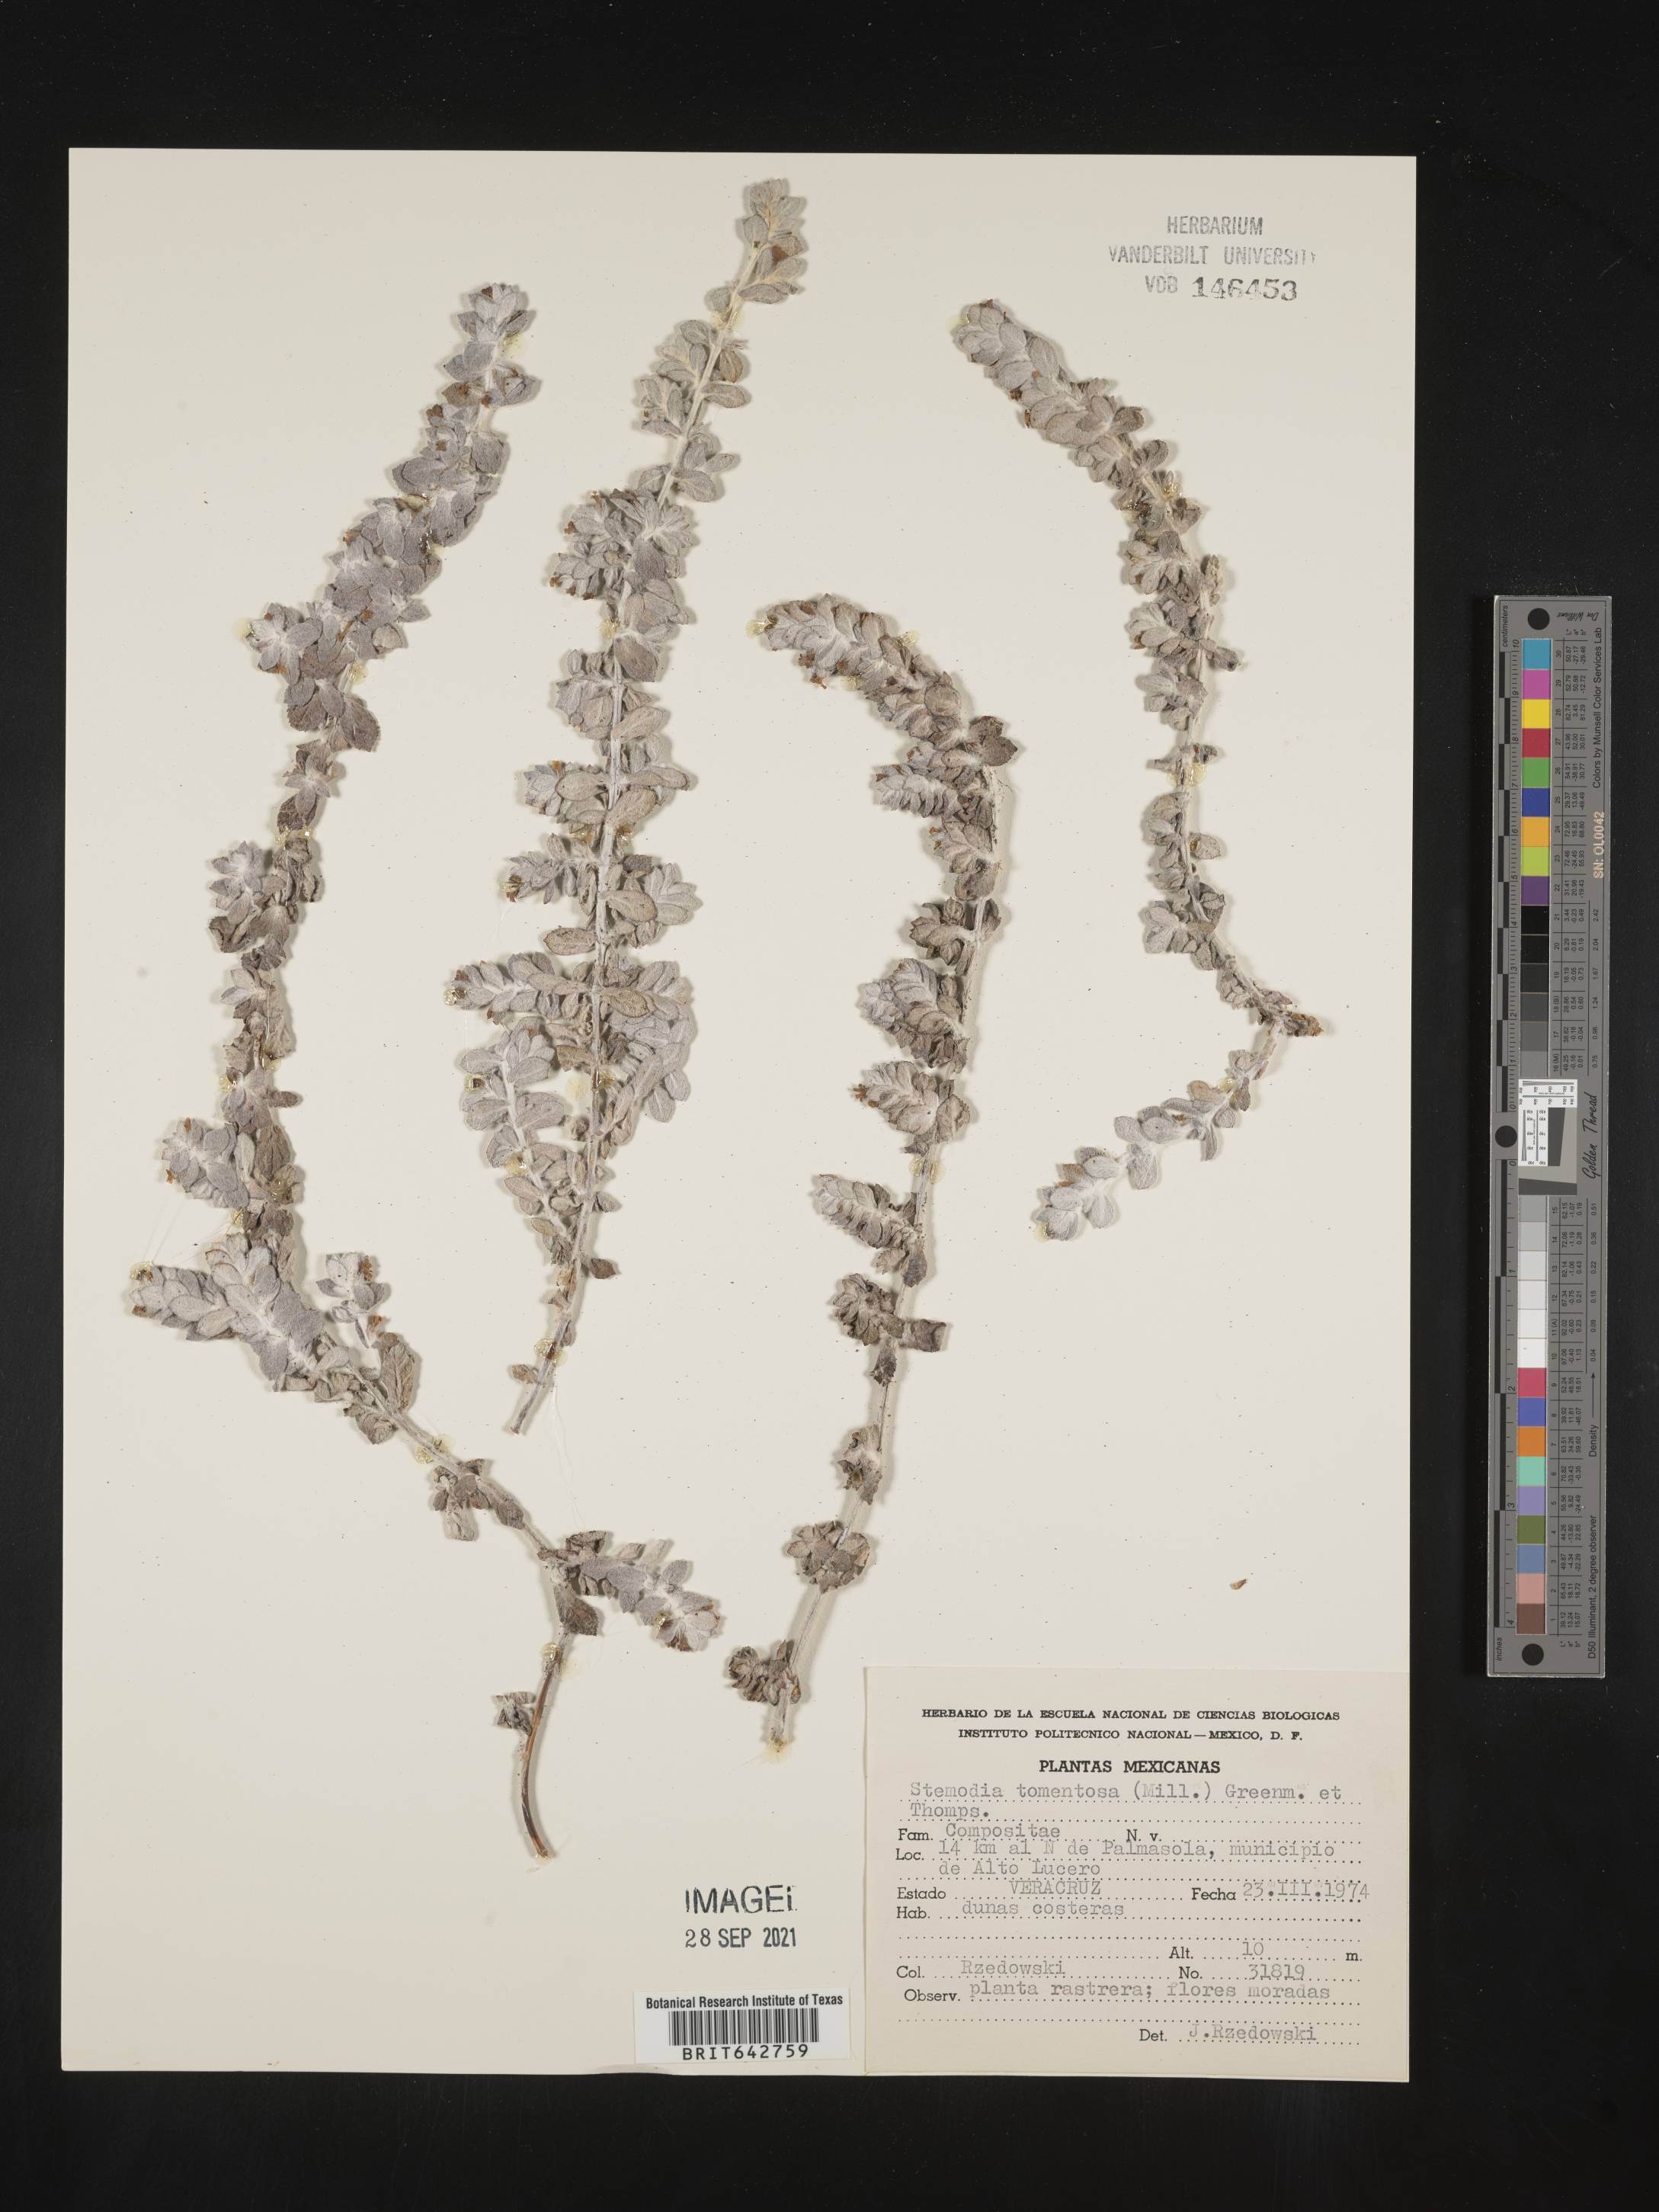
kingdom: Plantae
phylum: Tracheophyta
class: Magnoliopsida
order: Lamiales
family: Plantaginaceae
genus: Stemodia
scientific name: Stemodia
